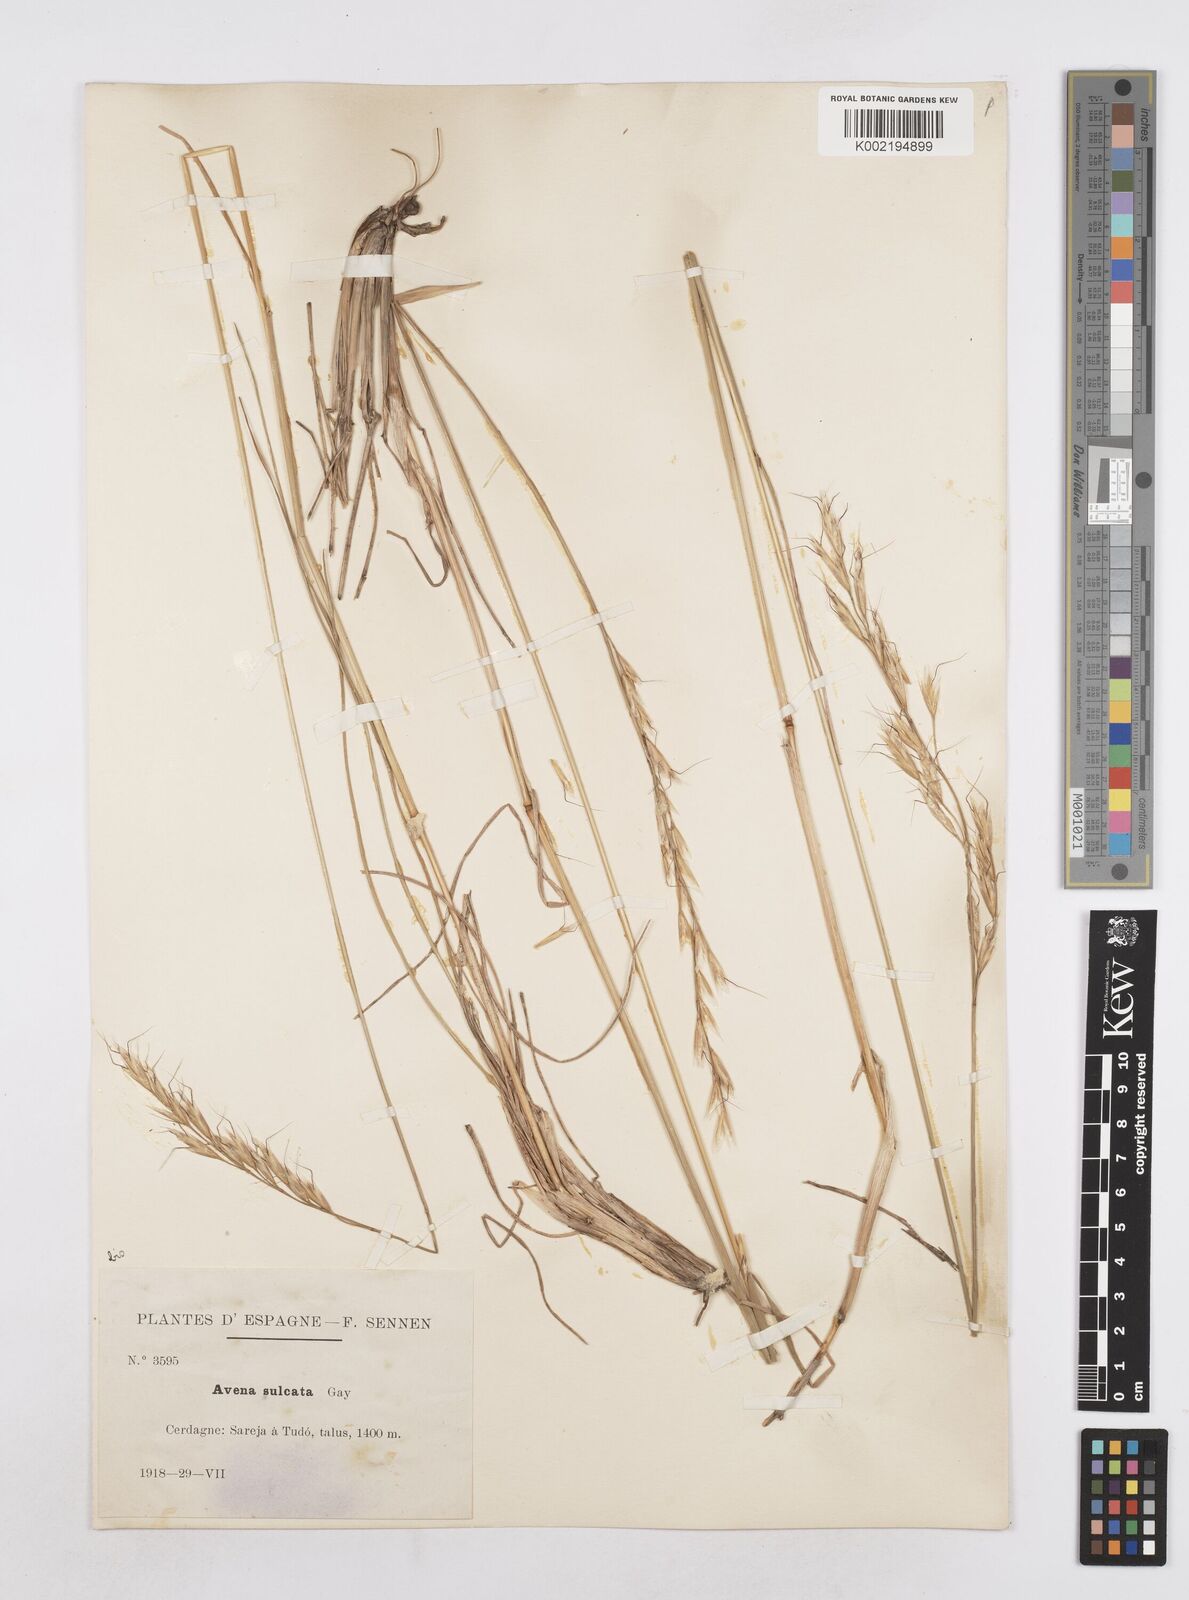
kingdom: Plantae
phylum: Tracheophyta
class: Liliopsida
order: Poales
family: Poaceae
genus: Helictotrichon
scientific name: Helictotrichon
